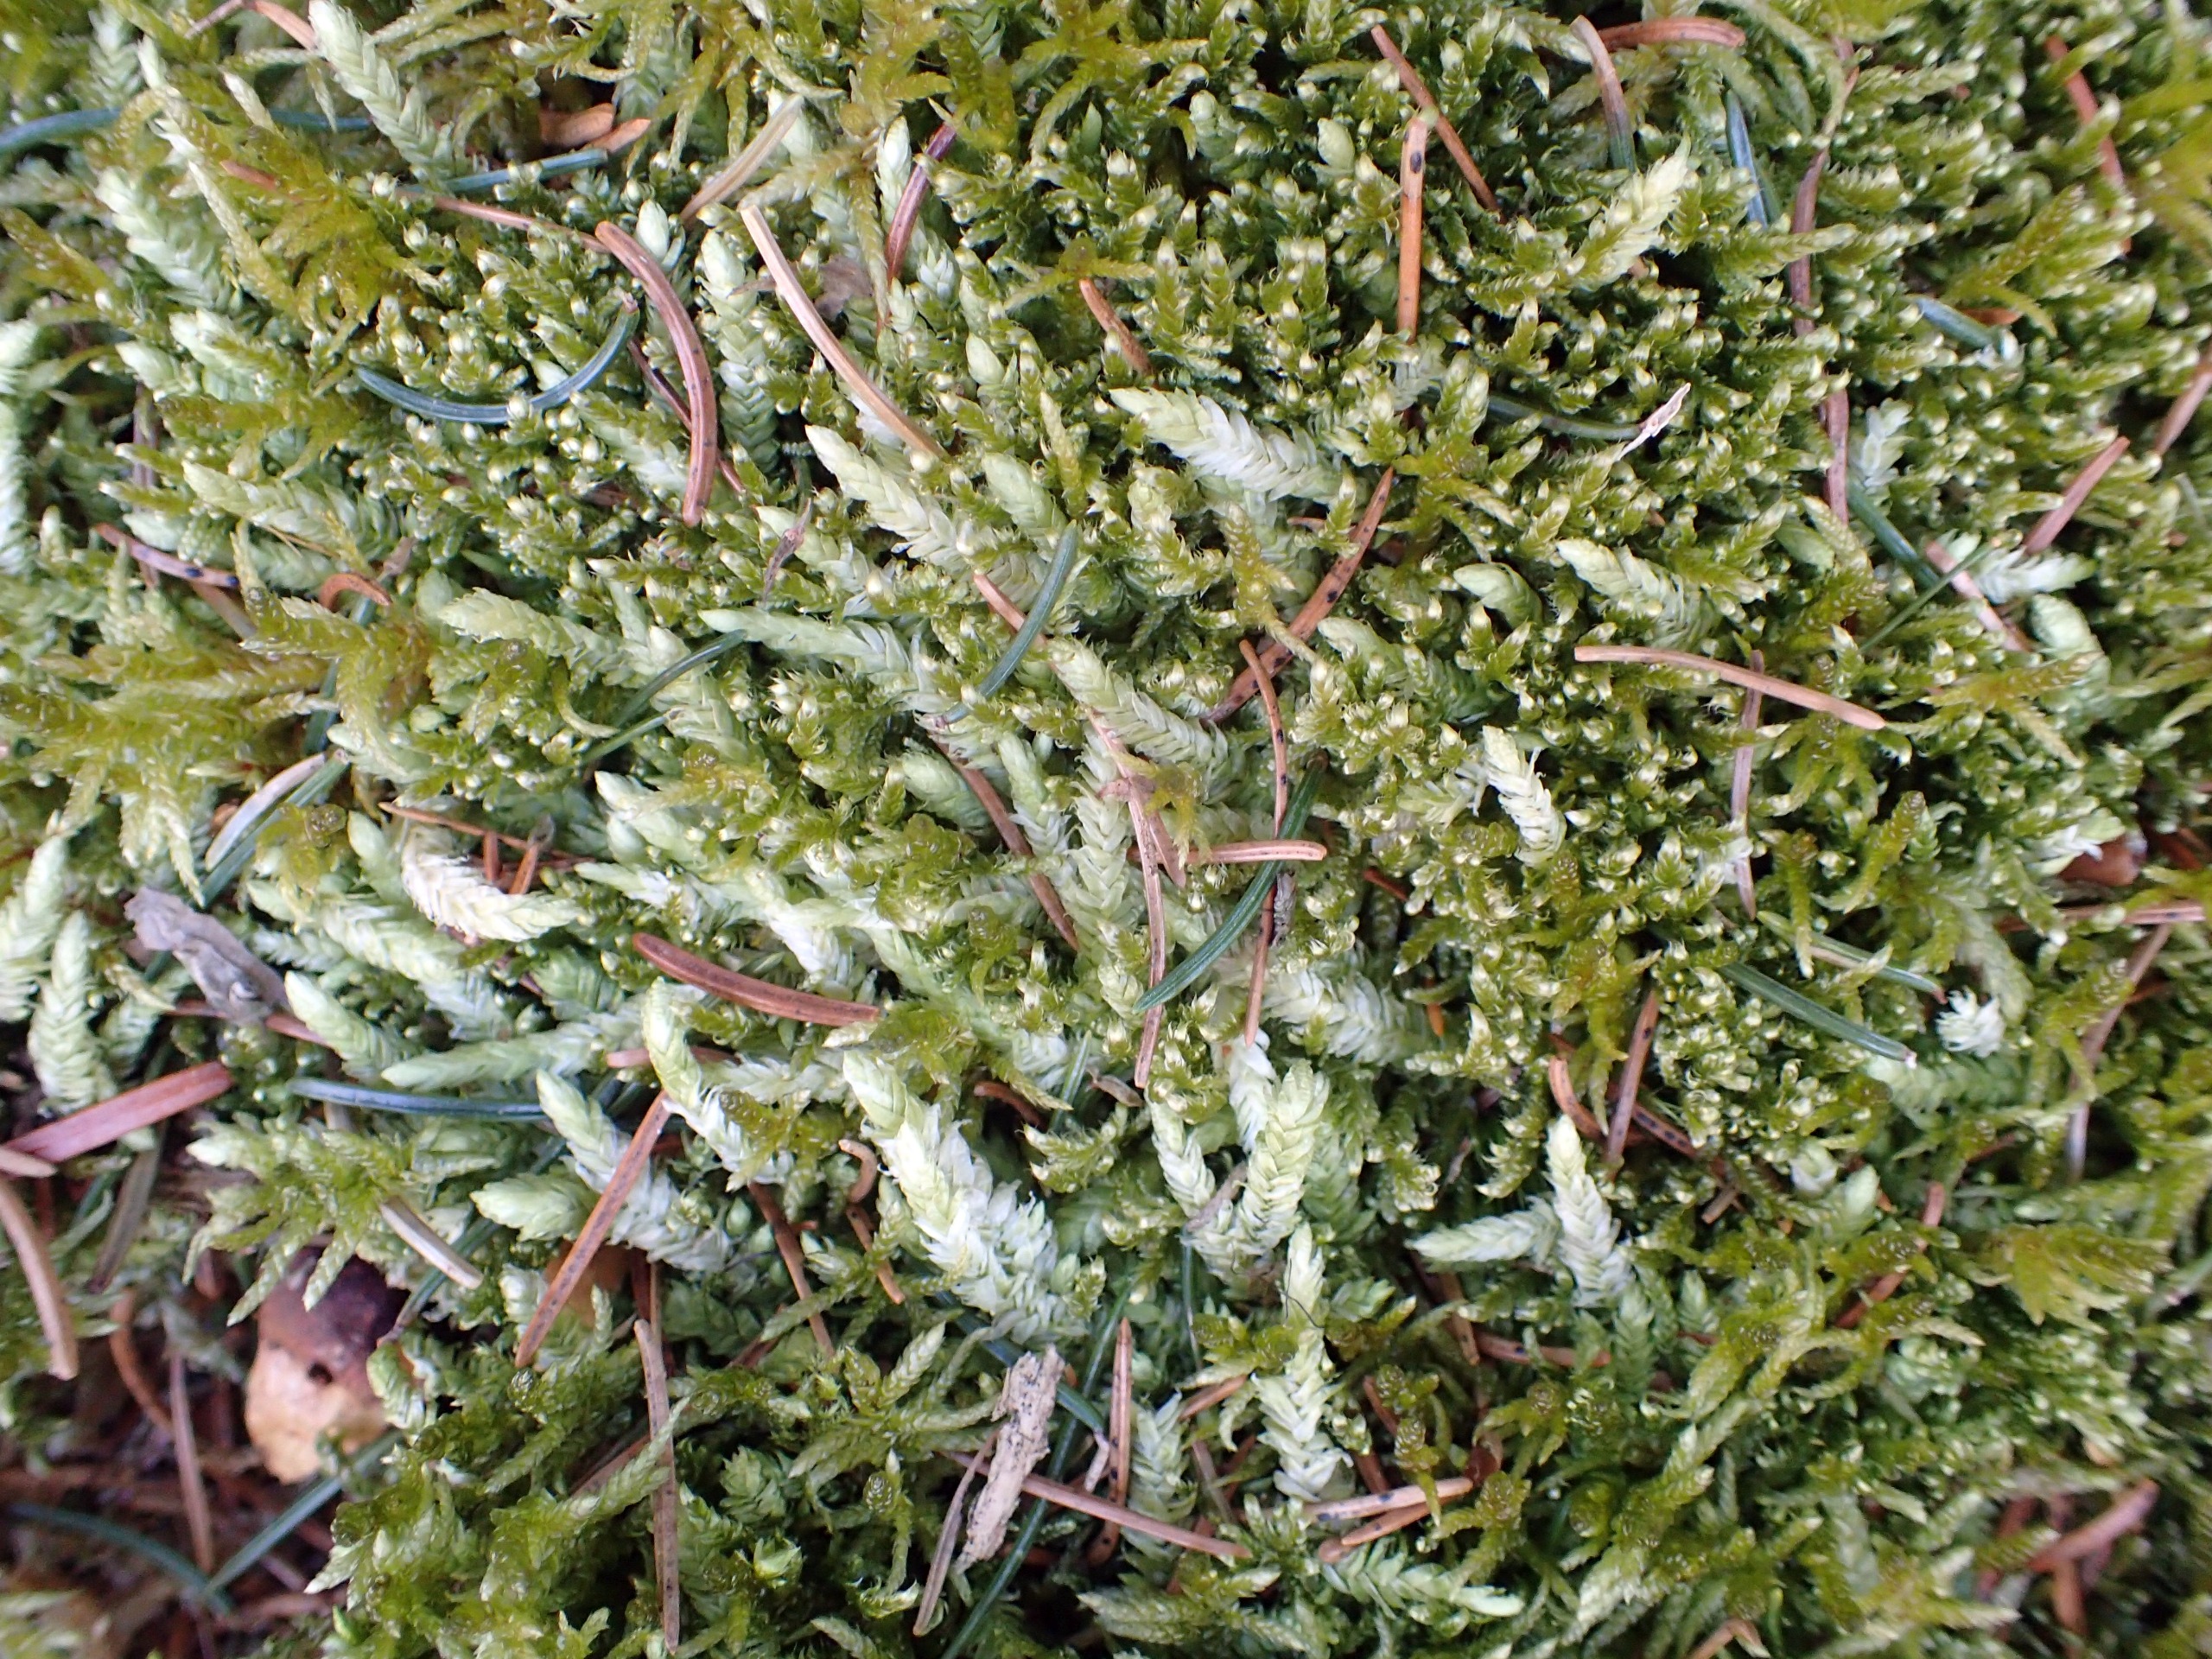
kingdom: Plantae
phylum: Bryophyta
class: Bryopsida
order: Hypnales
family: Plagiotheciaceae
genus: Plagiothecium
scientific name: Plagiothecium undulatum
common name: Bølget tæppemos
